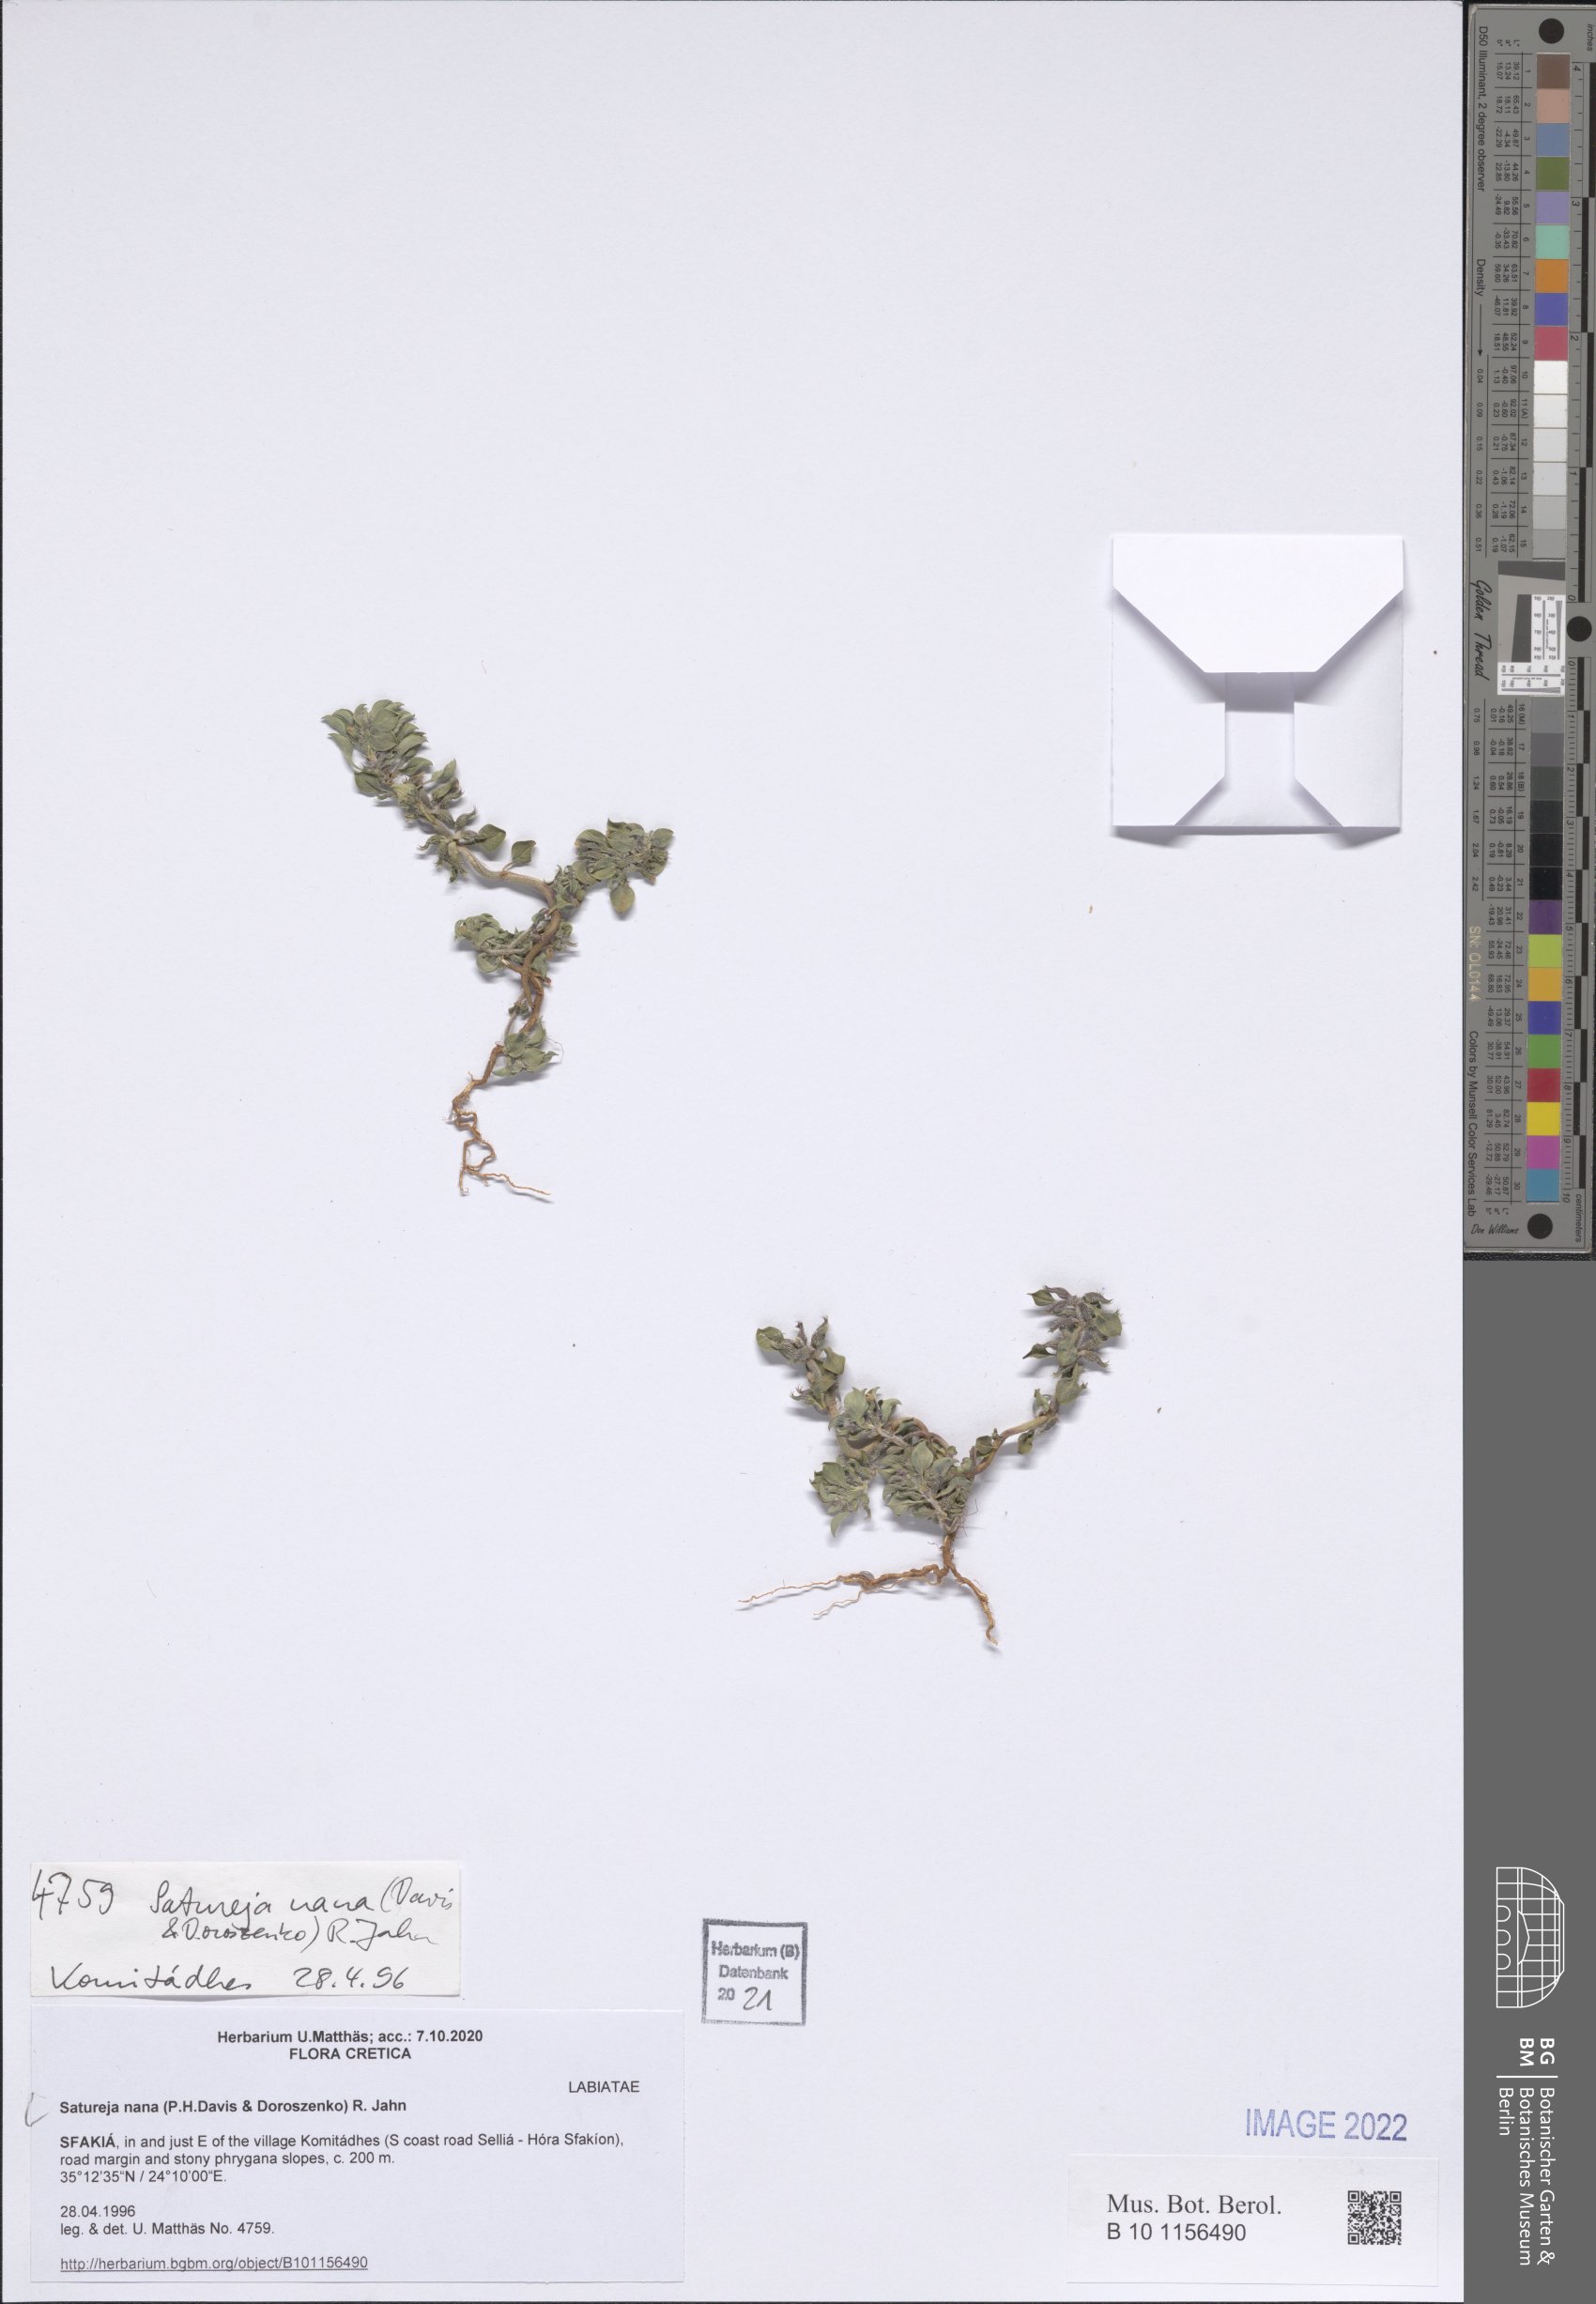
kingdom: Plantae
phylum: Tracheophyta
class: Magnoliopsida
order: Lamiales
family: Lamiaceae
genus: Clinopodium
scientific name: Clinopodium nanum
